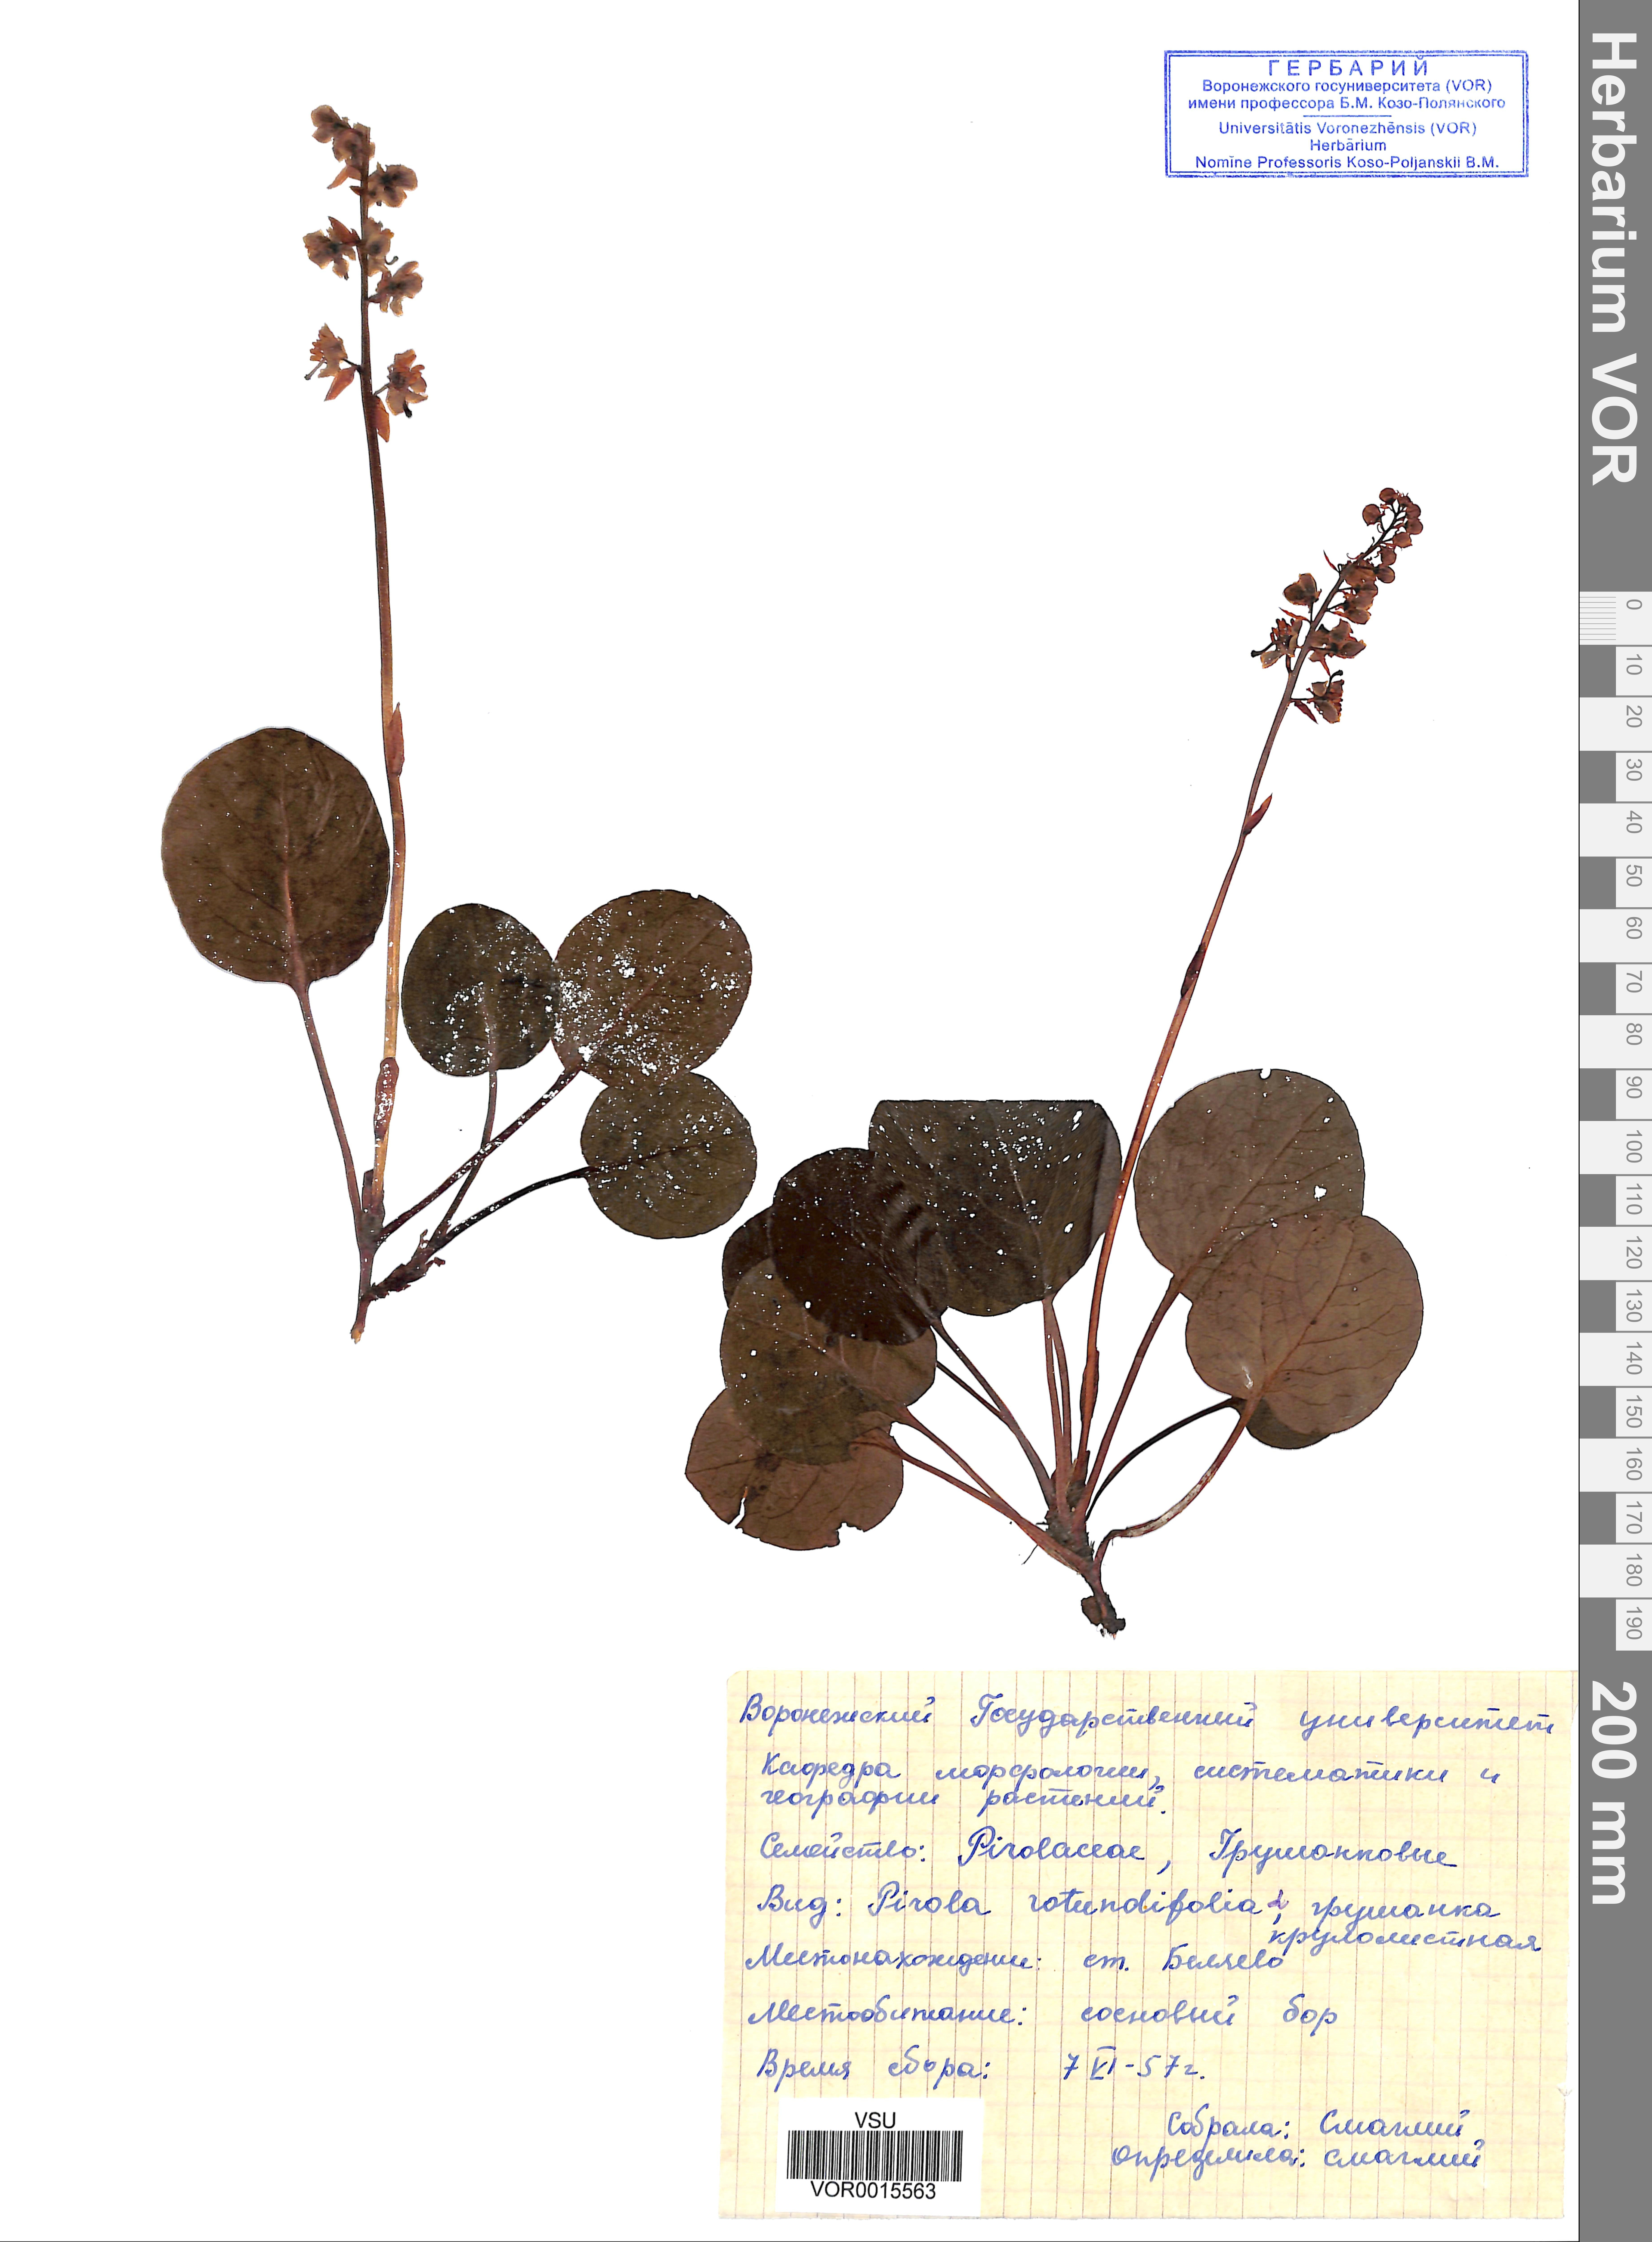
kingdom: Plantae
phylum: Tracheophyta
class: Magnoliopsida
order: Ericales
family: Ericaceae
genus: Pyrola
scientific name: Pyrola rotundifolia
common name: Round-leaved wintergreen
